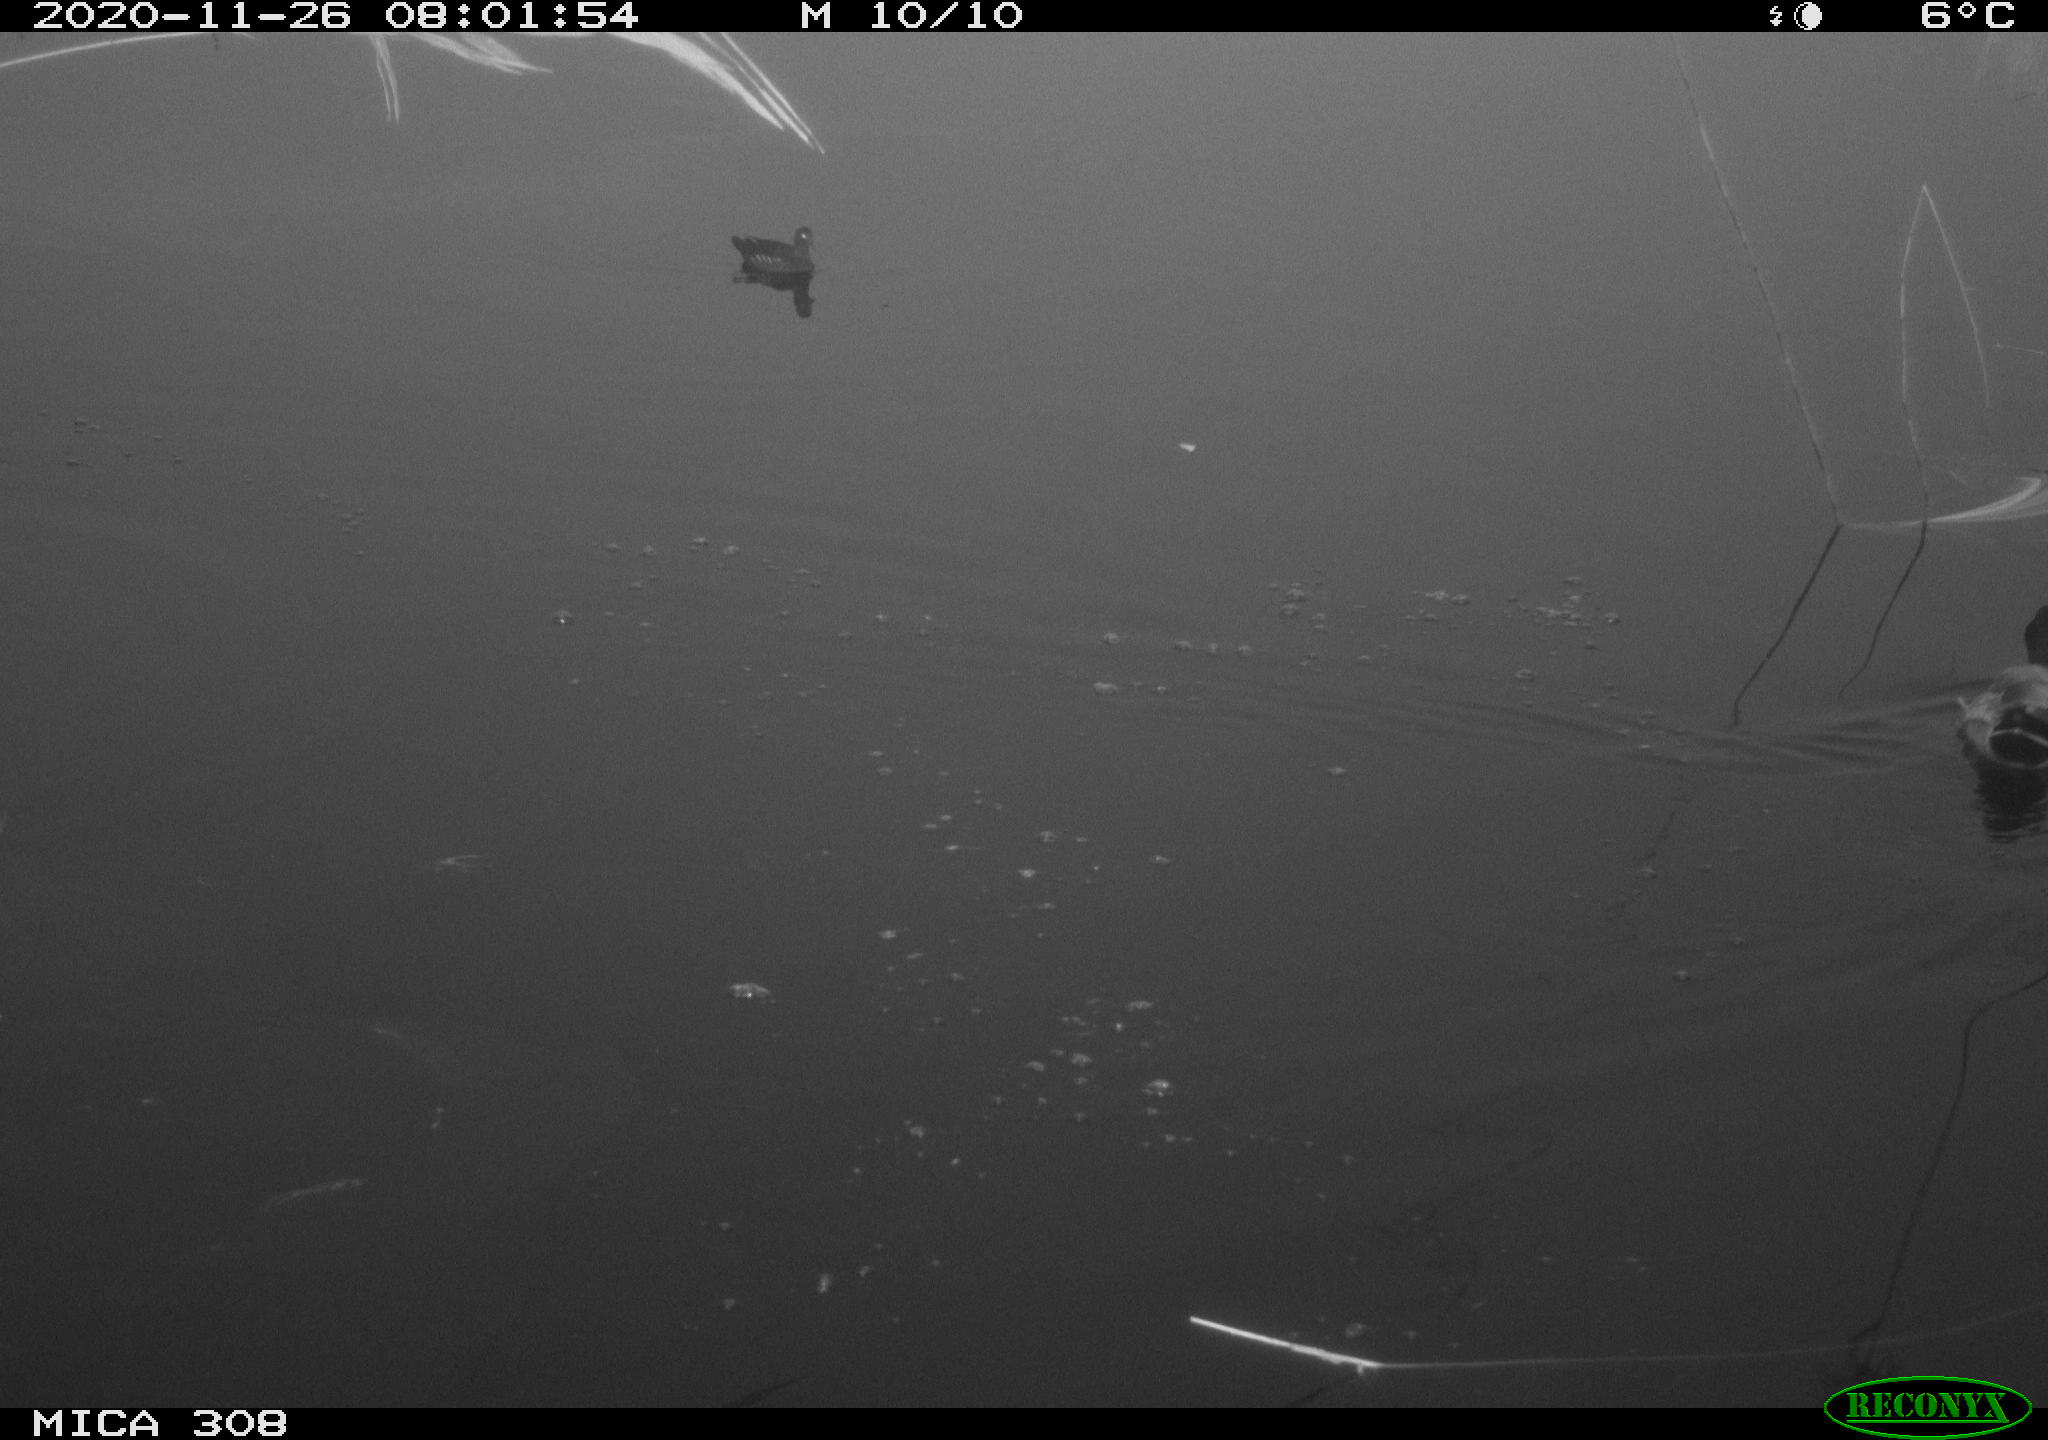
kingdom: Animalia
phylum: Chordata
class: Aves
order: Anseriformes
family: Anatidae
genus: Anas
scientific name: Anas platyrhynchos
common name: Mallard
